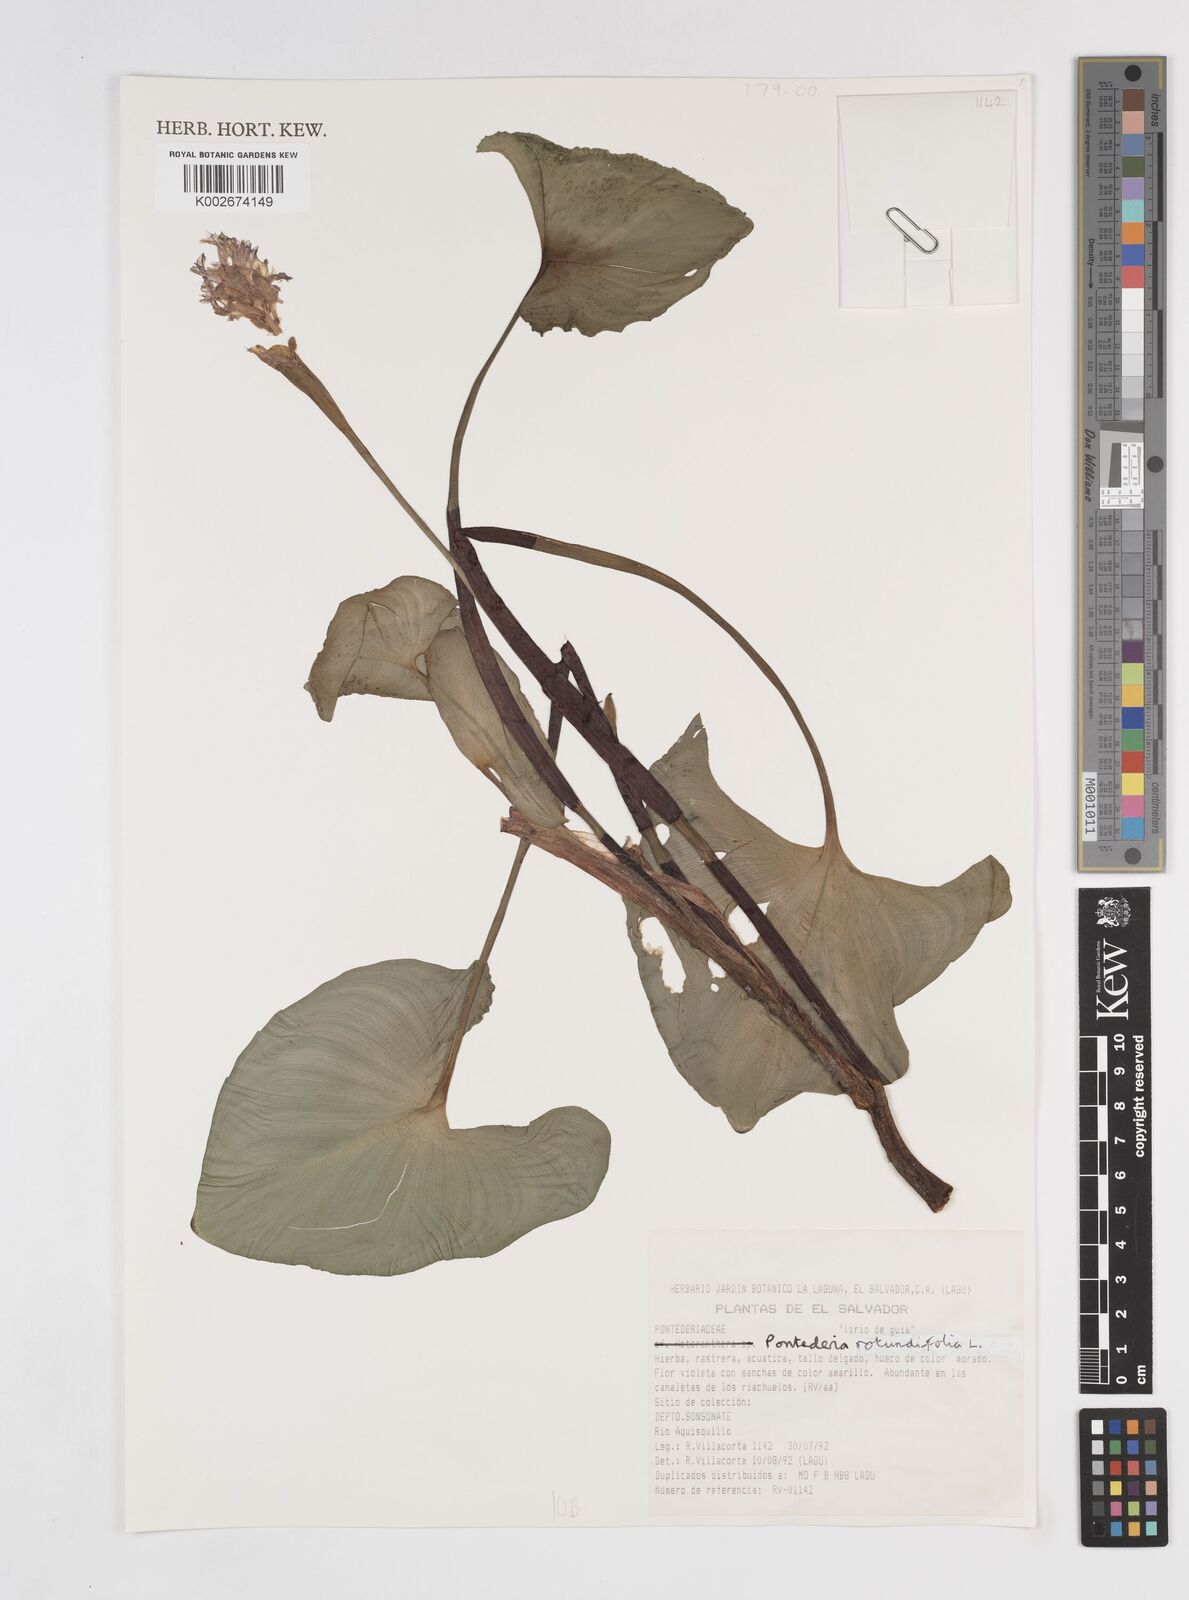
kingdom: Plantae
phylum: Tracheophyta
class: Liliopsida
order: Commelinales
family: Pontederiaceae
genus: Pontederia
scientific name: Pontederia rotundifolia
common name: Tropical pickerel-weed
